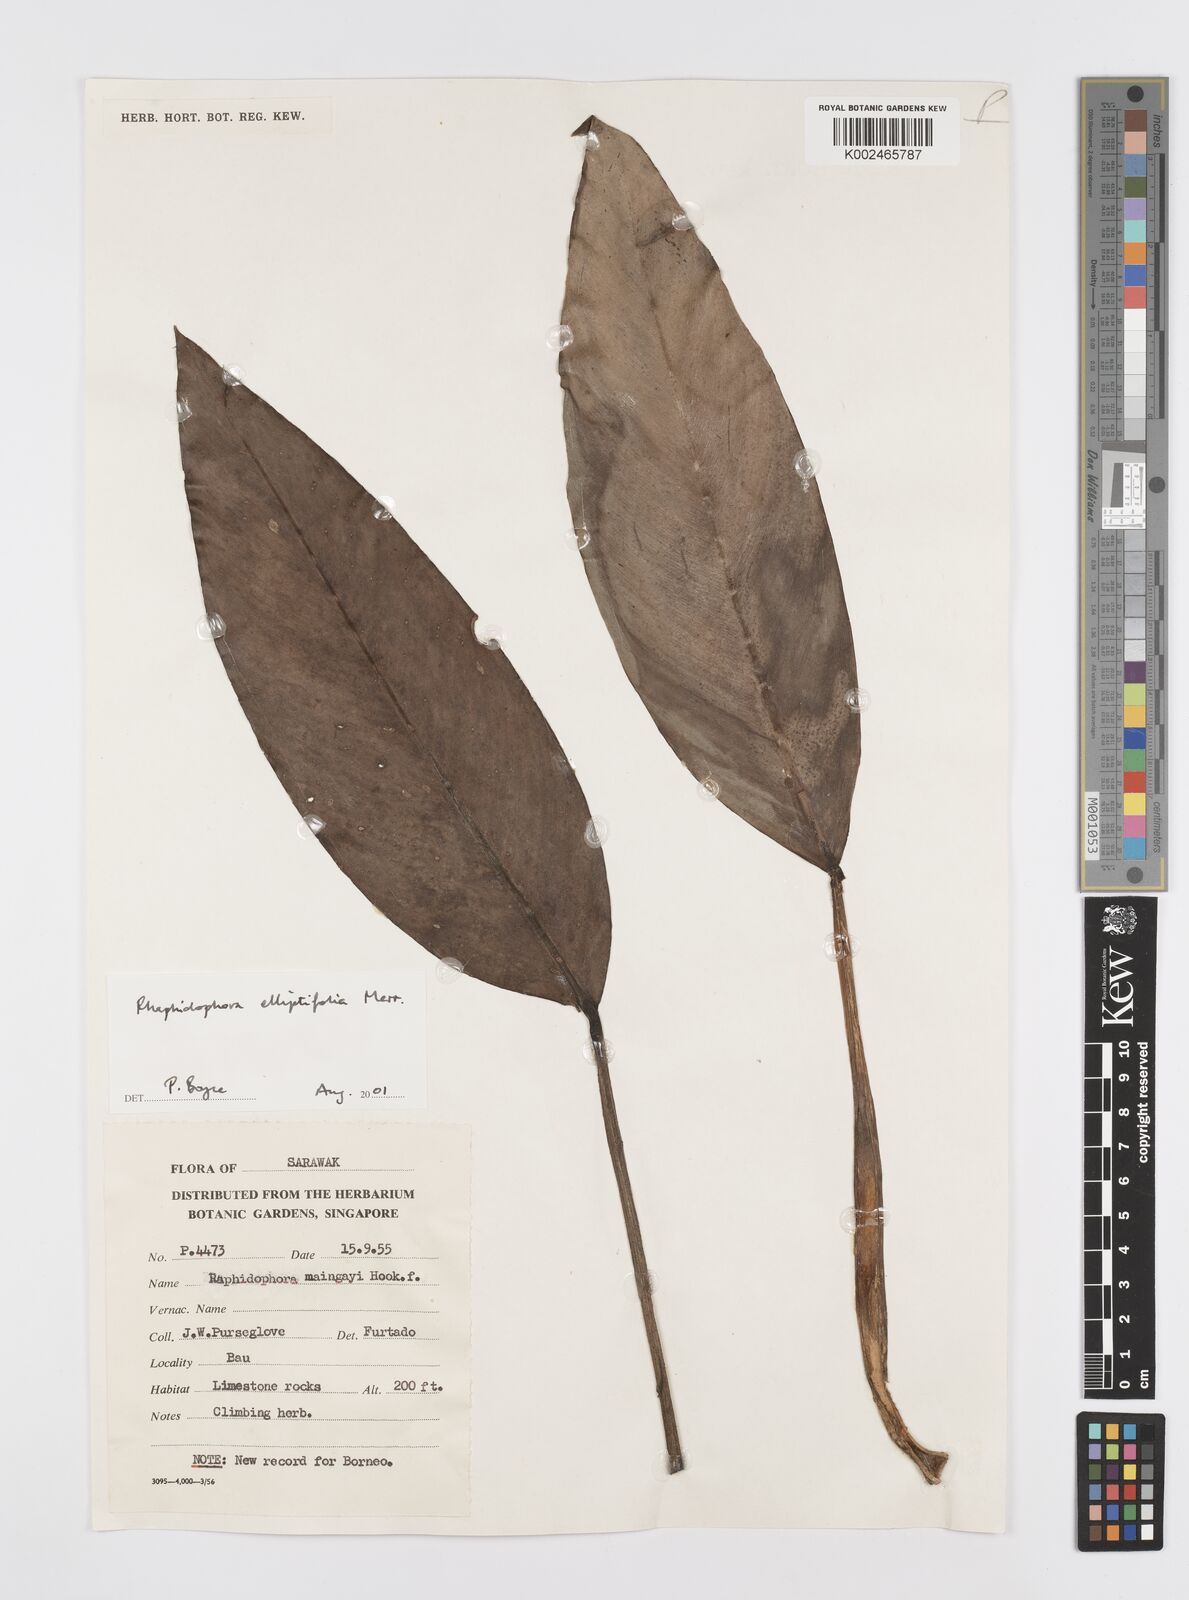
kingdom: Plantae
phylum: Tracheophyta
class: Liliopsida
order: Alismatales
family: Araceae
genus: Rhaphidophora
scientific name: Rhaphidophora elliptifolia
